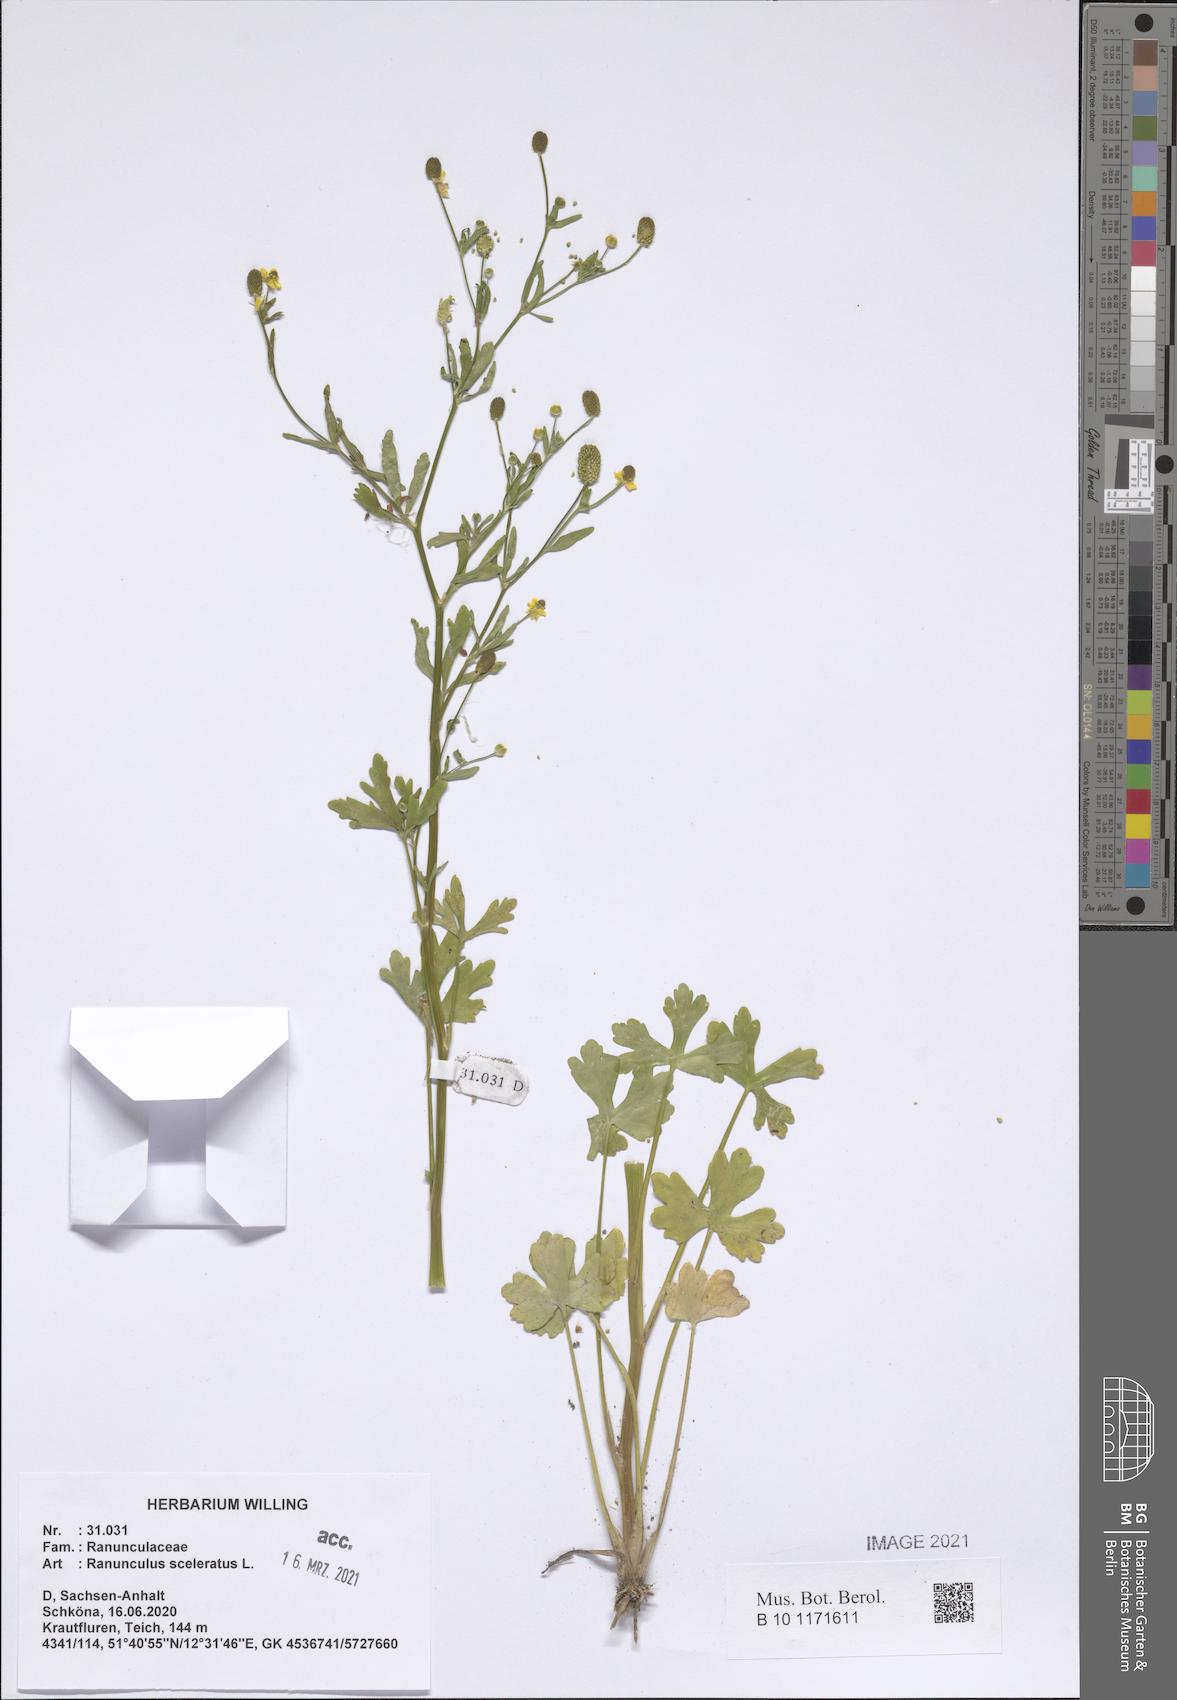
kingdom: Plantae
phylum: Tracheophyta
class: Magnoliopsida
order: Ranunculales
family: Ranunculaceae
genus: Ranunculus
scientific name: Ranunculus sceleratus
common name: Celery-leaved buttercup
